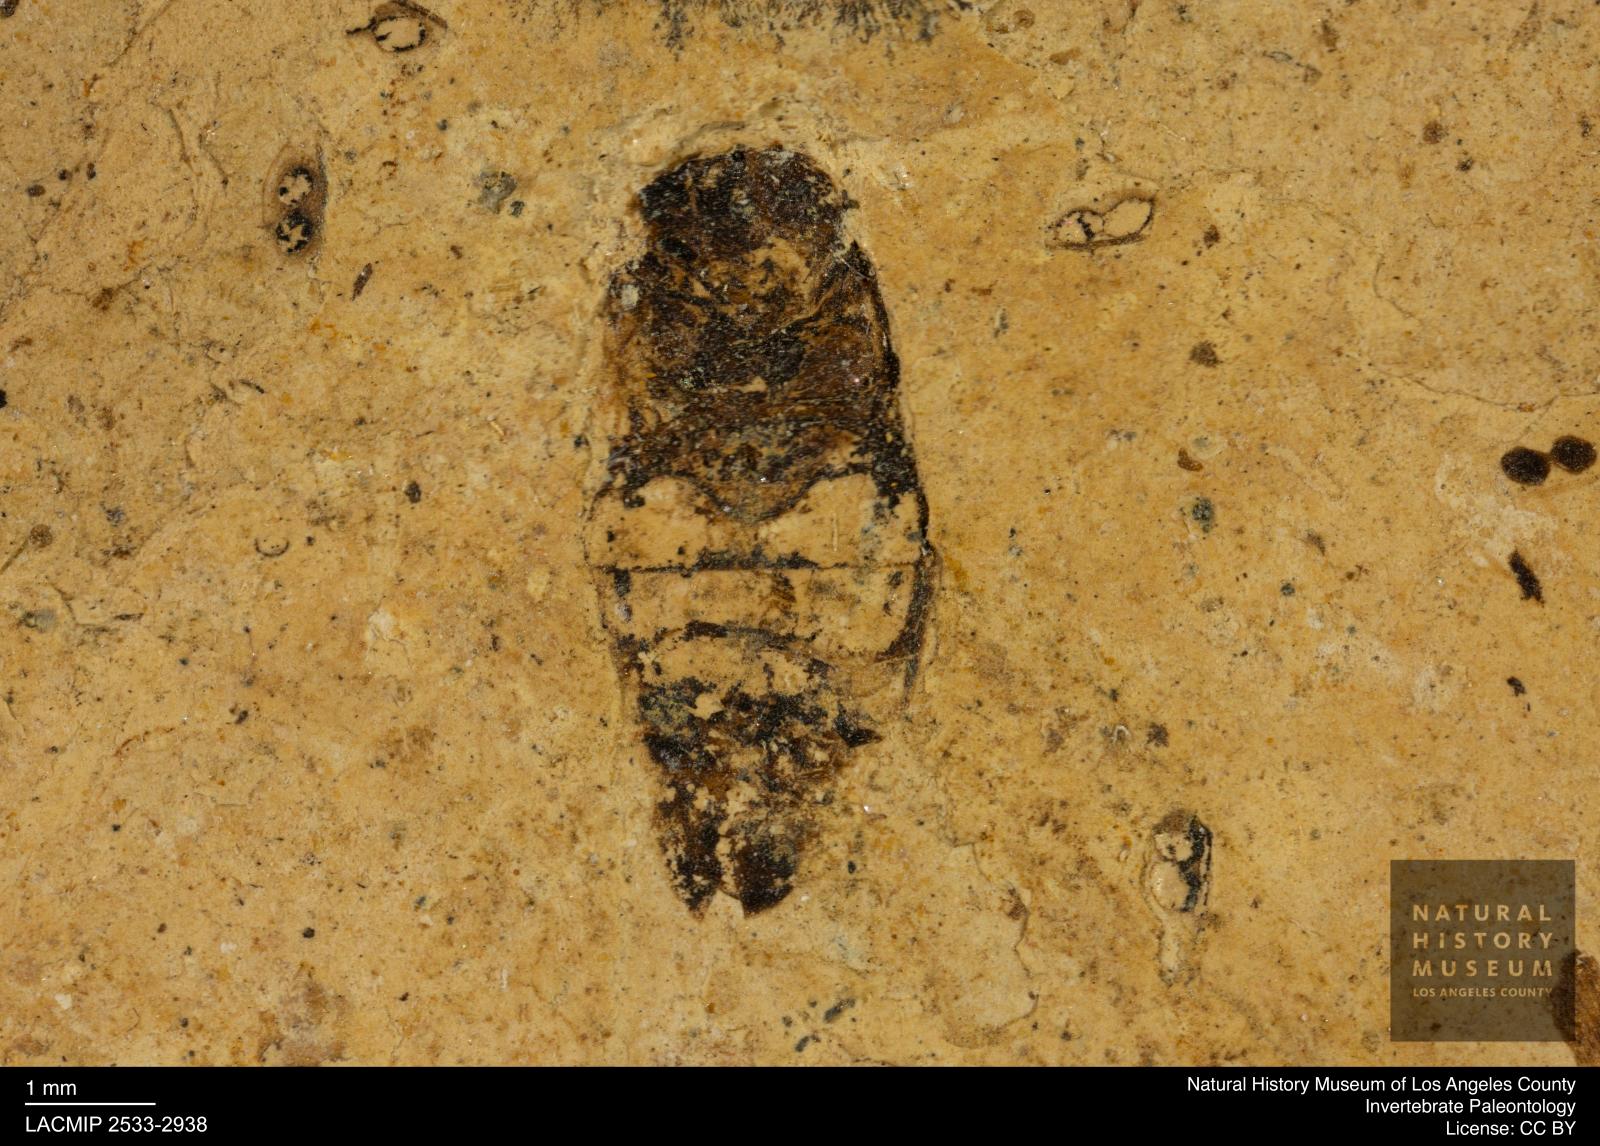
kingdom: Animalia
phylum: Arthropoda
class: Insecta
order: Hemiptera
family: Corixidae
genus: Corixa
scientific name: Corixa
